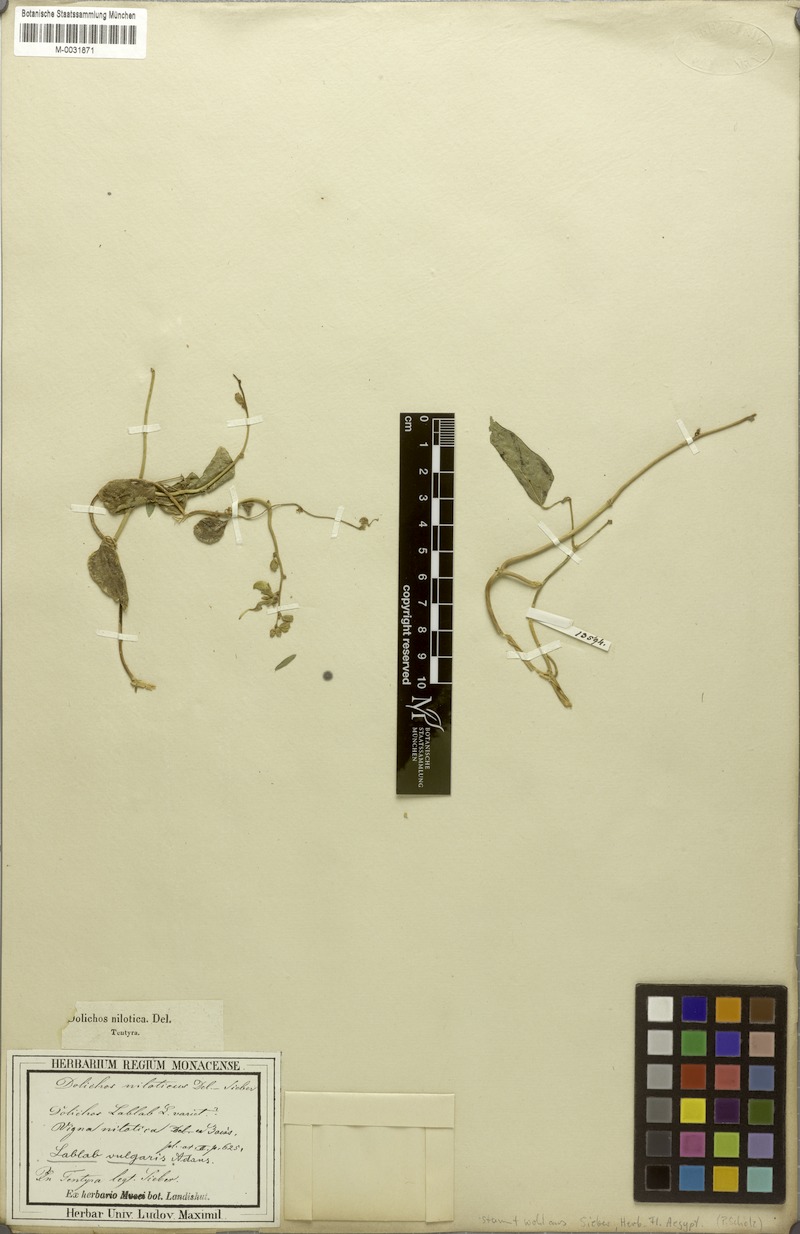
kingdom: Plantae
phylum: Tracheophyta
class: Magnoliopsida
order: Fabales
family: Fabaceae
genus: Lablab
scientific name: Lablab purpureus
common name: Lablab-bean
